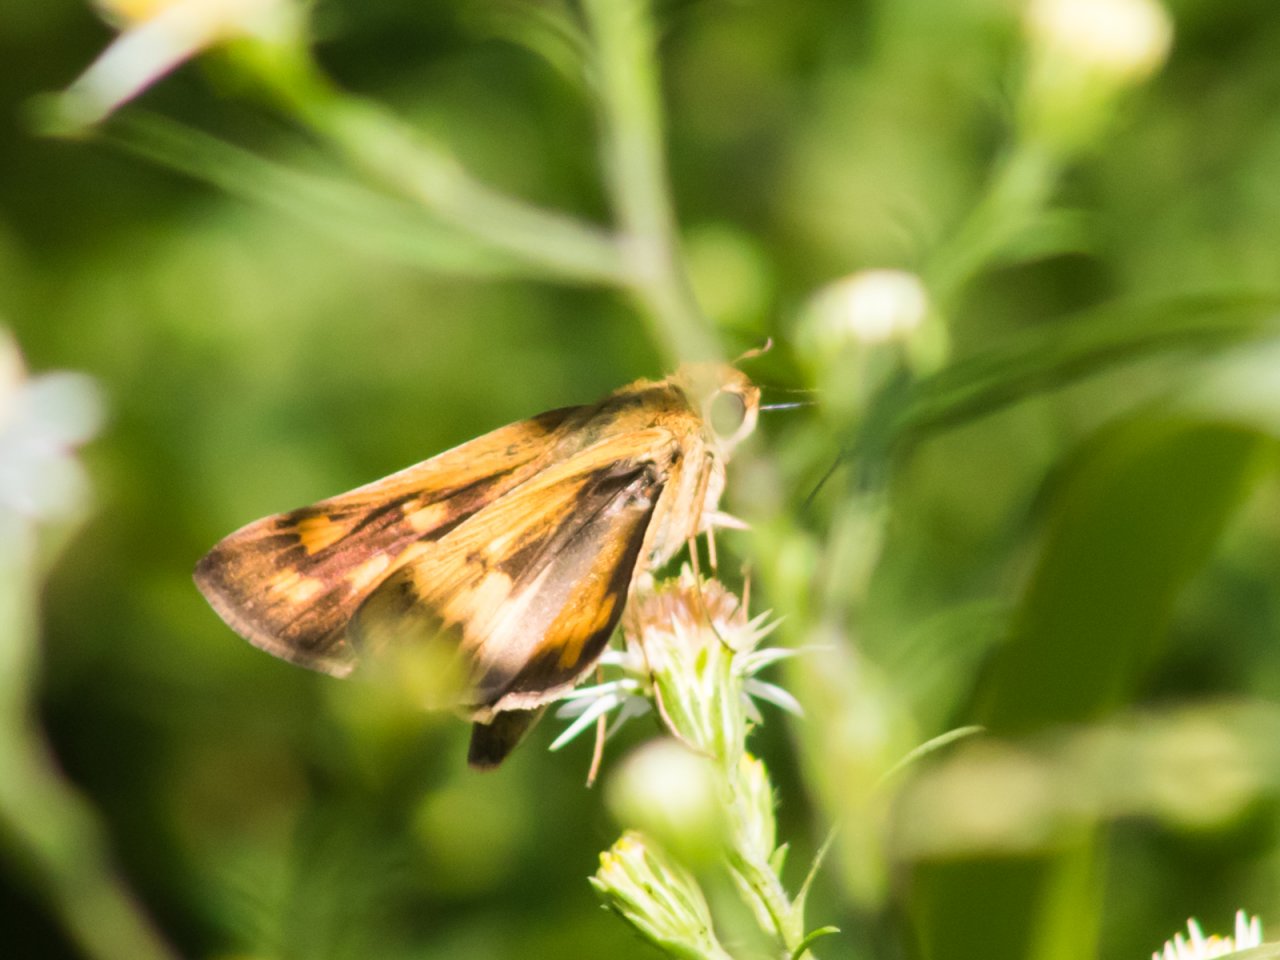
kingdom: Animalia
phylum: Arthropoda
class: Insecta
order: Lepidoptera
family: Hesperiidae
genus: Hylephila
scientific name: Hylephila phyleus
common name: Fiery Skipper
